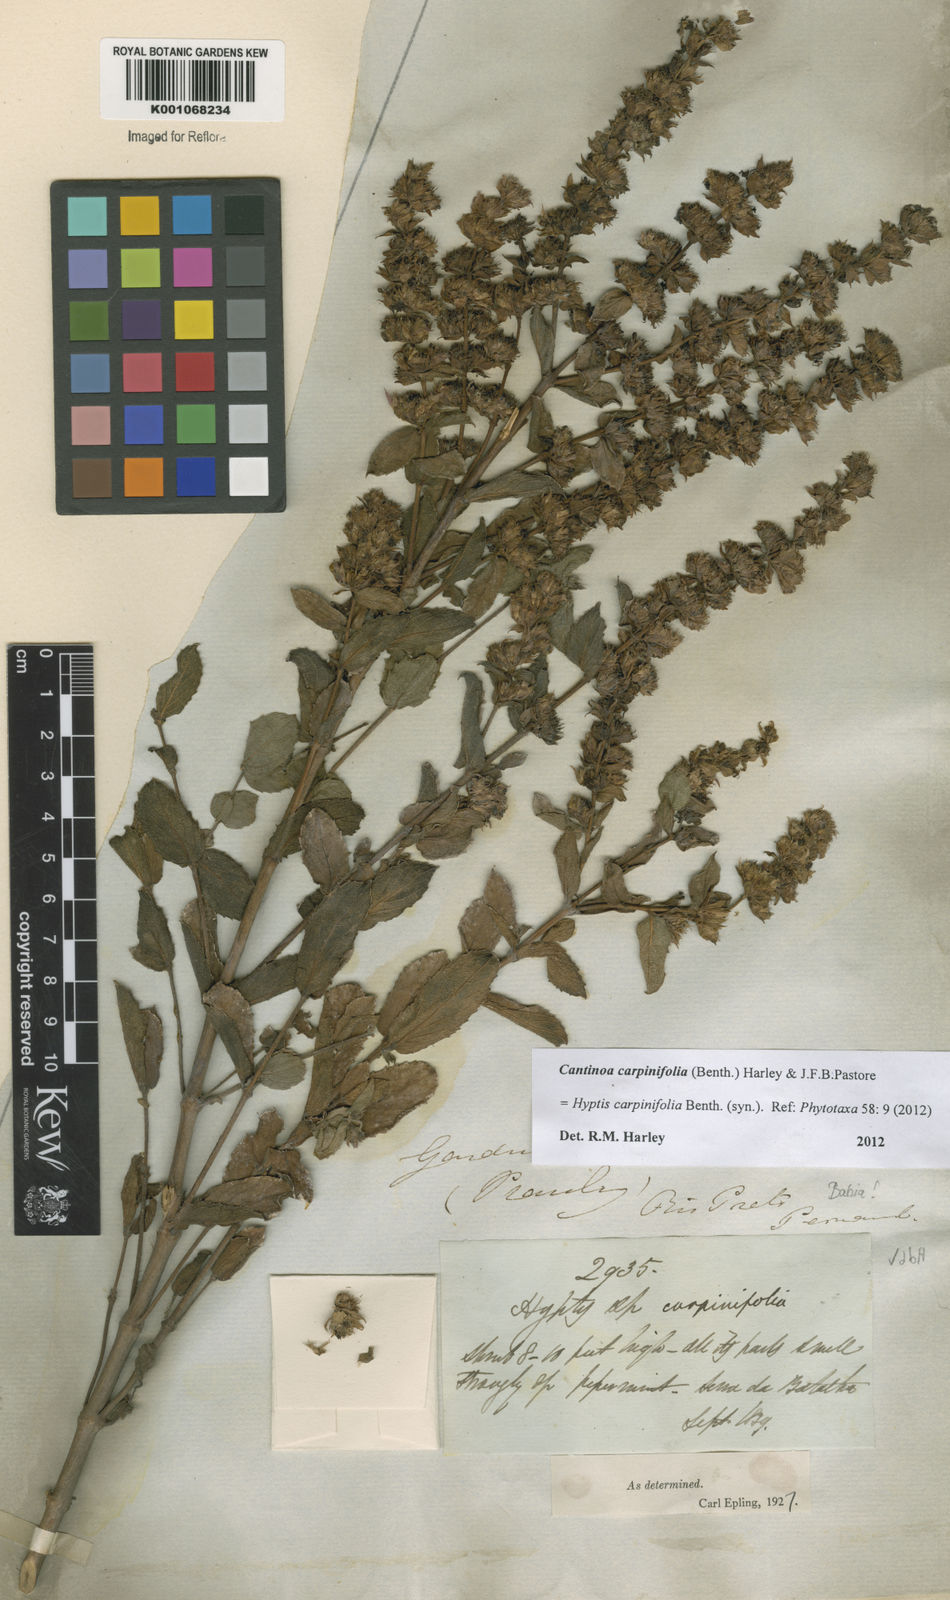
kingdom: Plantae
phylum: Tracheophyta
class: Magnoliopsida
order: Lamiales
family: Lamiaceae
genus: Cantinoa
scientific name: Cantinoa carpinifolia
